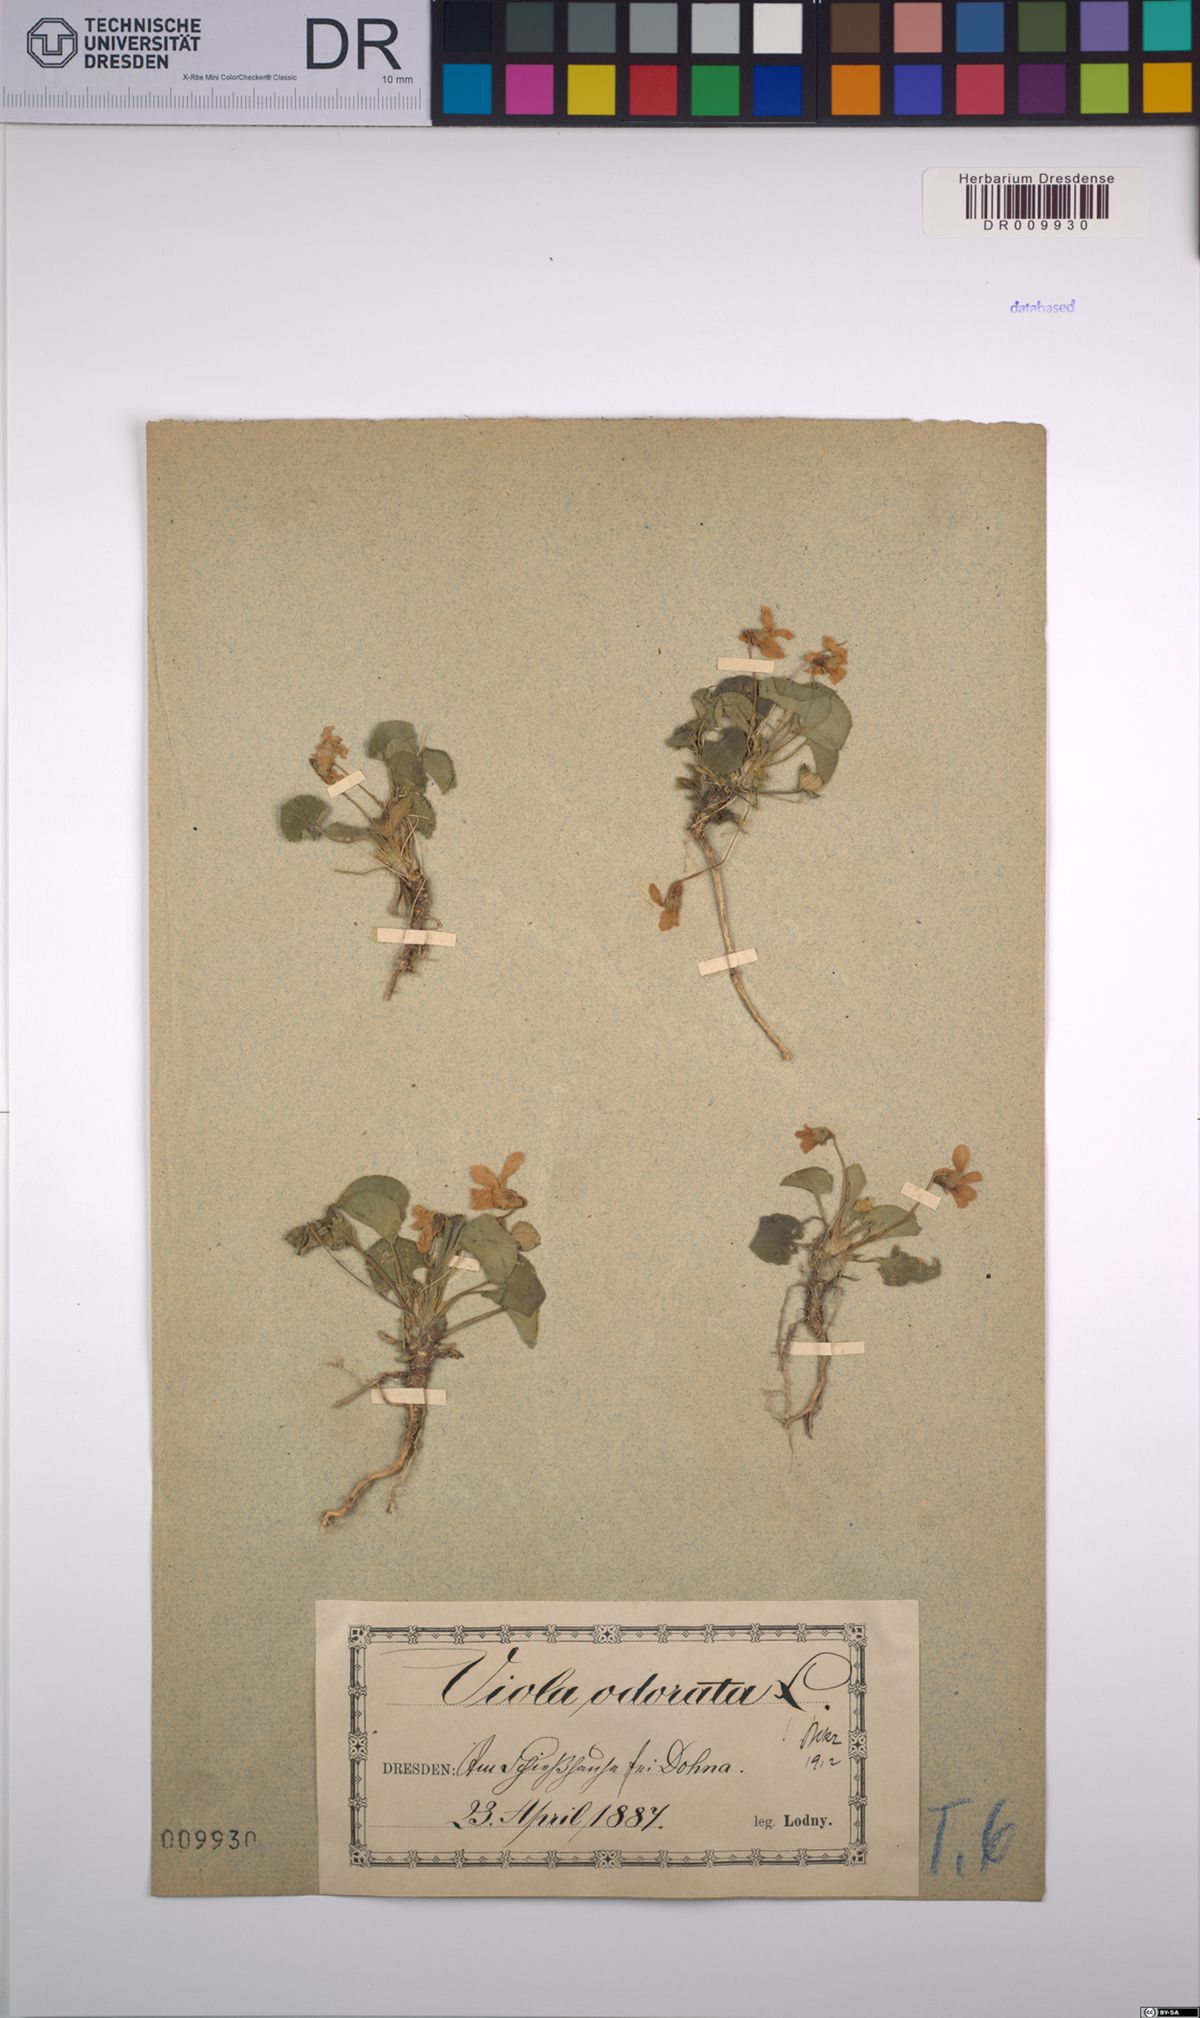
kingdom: Plantae
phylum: Tracheophyta
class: Magnoliopsida
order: Malpighiales
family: Violaceae
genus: Viola
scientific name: Viola odorata
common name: Sweet violet
